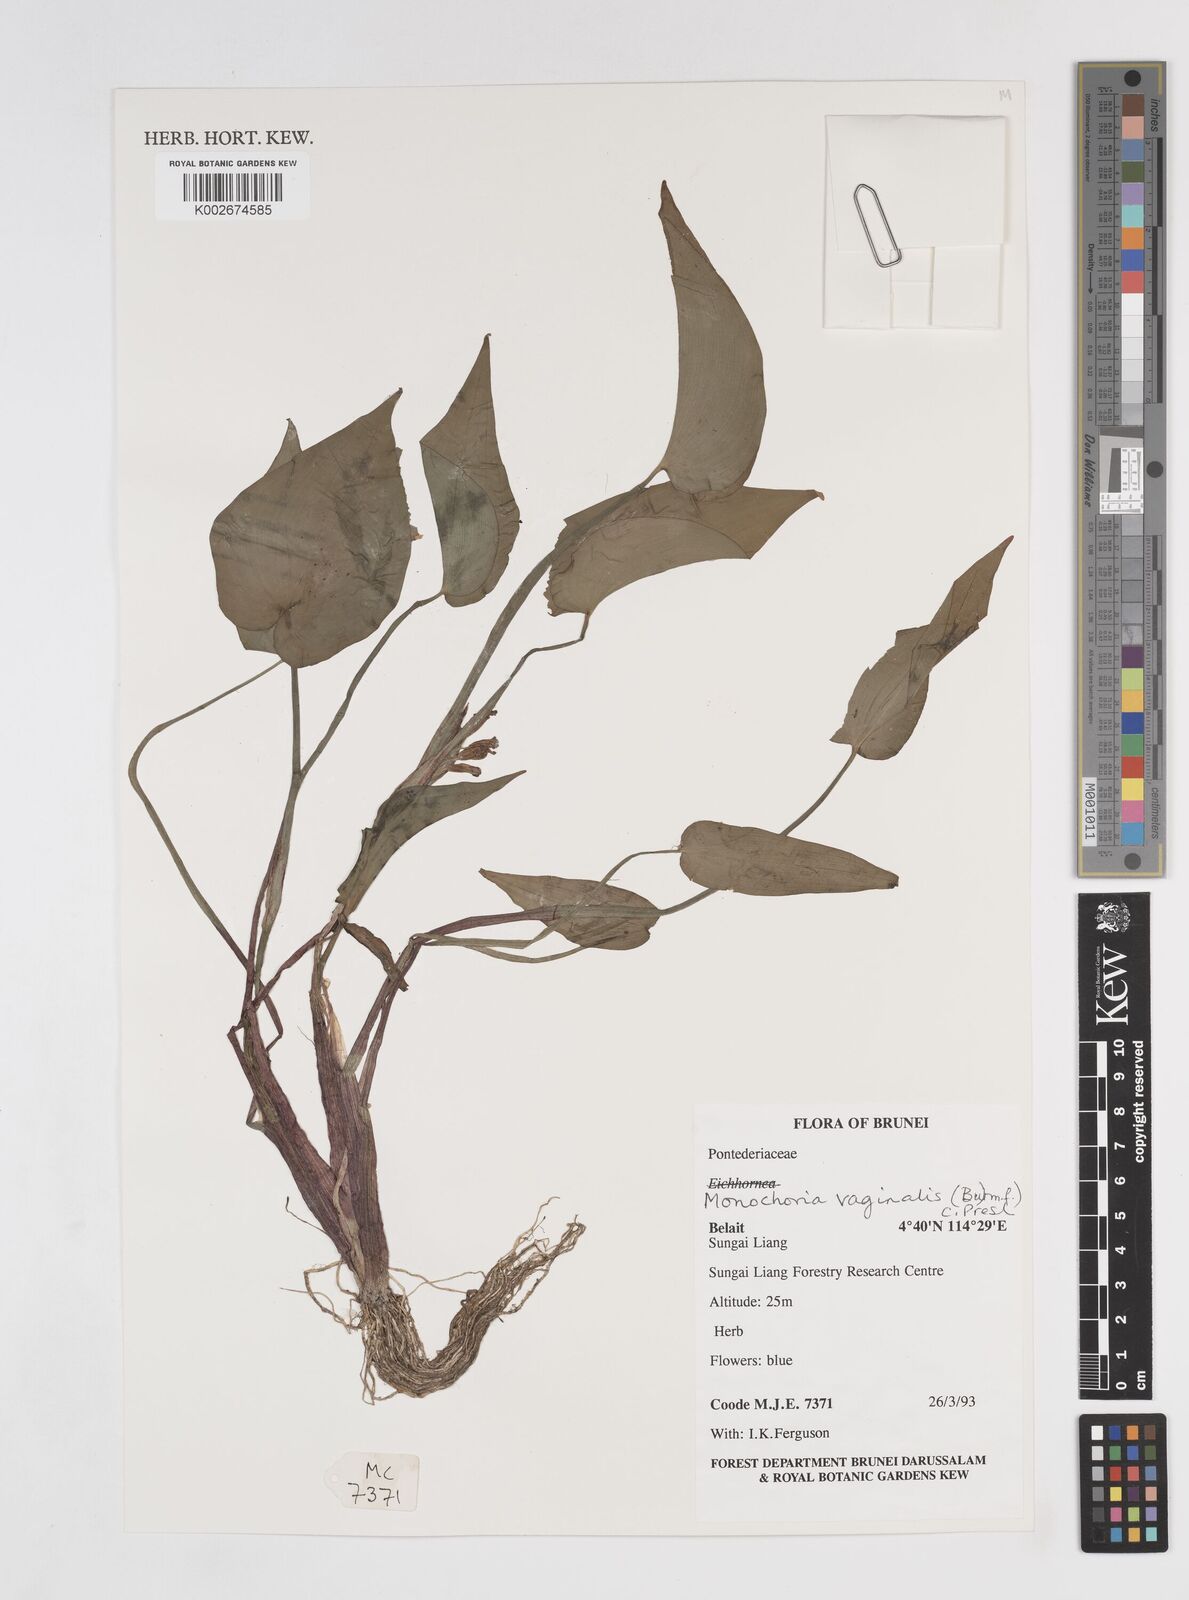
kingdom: Plantae
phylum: Tracheophyta
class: Liliopsida
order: Commelinales
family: Pontederiaceae
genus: Pontederia
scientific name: Pontederia vaginalis
